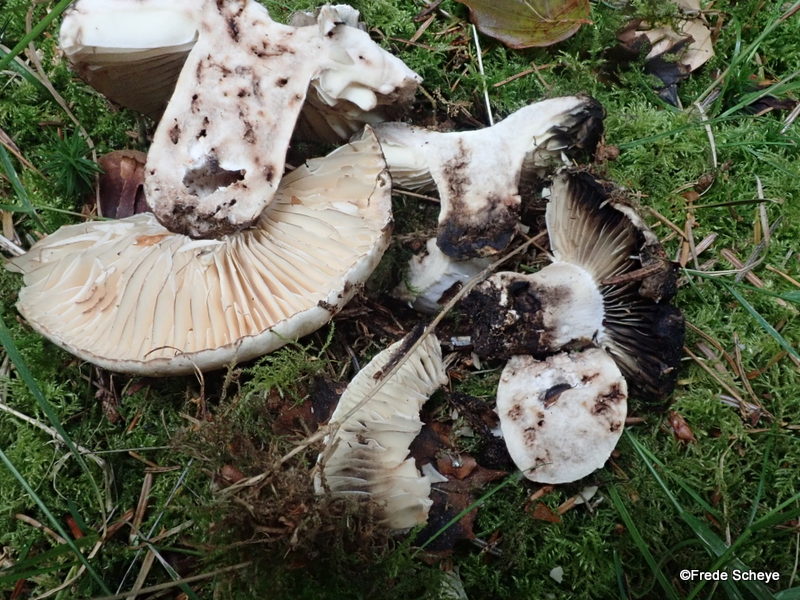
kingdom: Fungi
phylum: Basidiomycota
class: Agaricomycetes
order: Russulales
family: Russulaceae
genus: Russula
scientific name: Russula adusta
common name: sværtende skørhat
